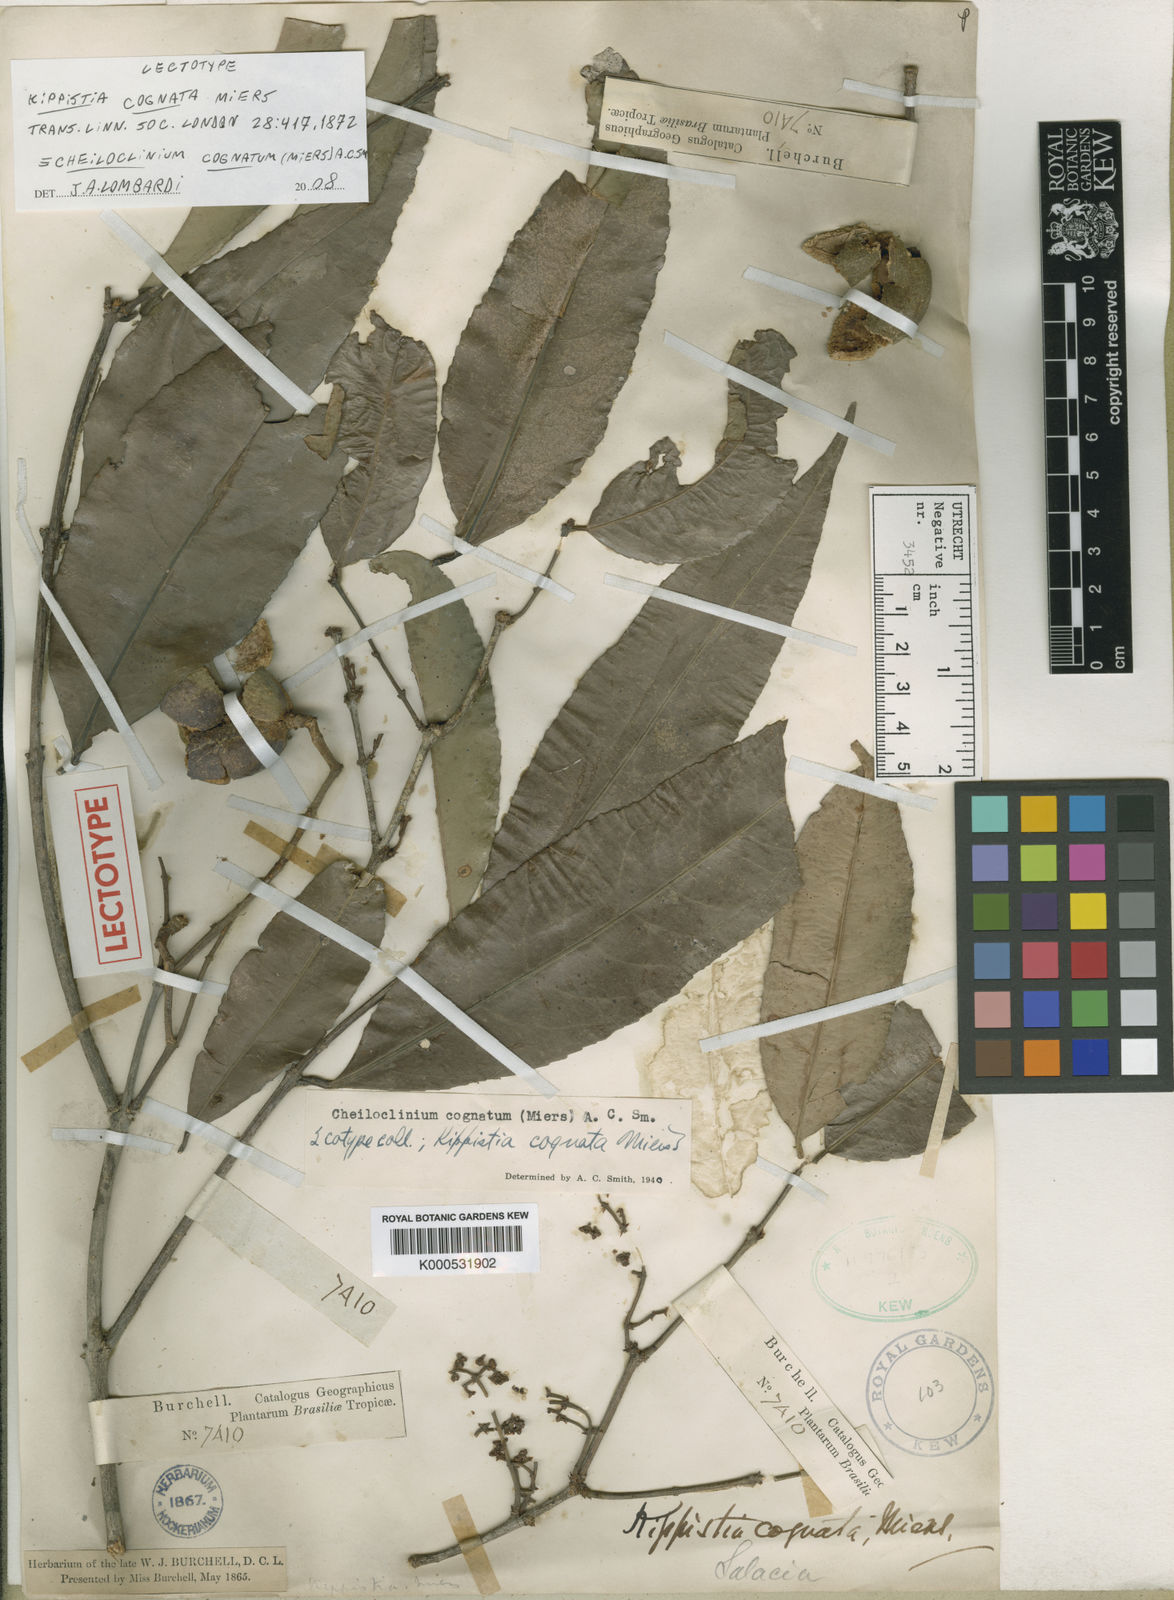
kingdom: Plantae
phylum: Tracheophyta
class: Magnoliopsida
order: Celastrales
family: Celastraceae
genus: Cheiloclinium
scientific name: Cheiloclinium cognatum
